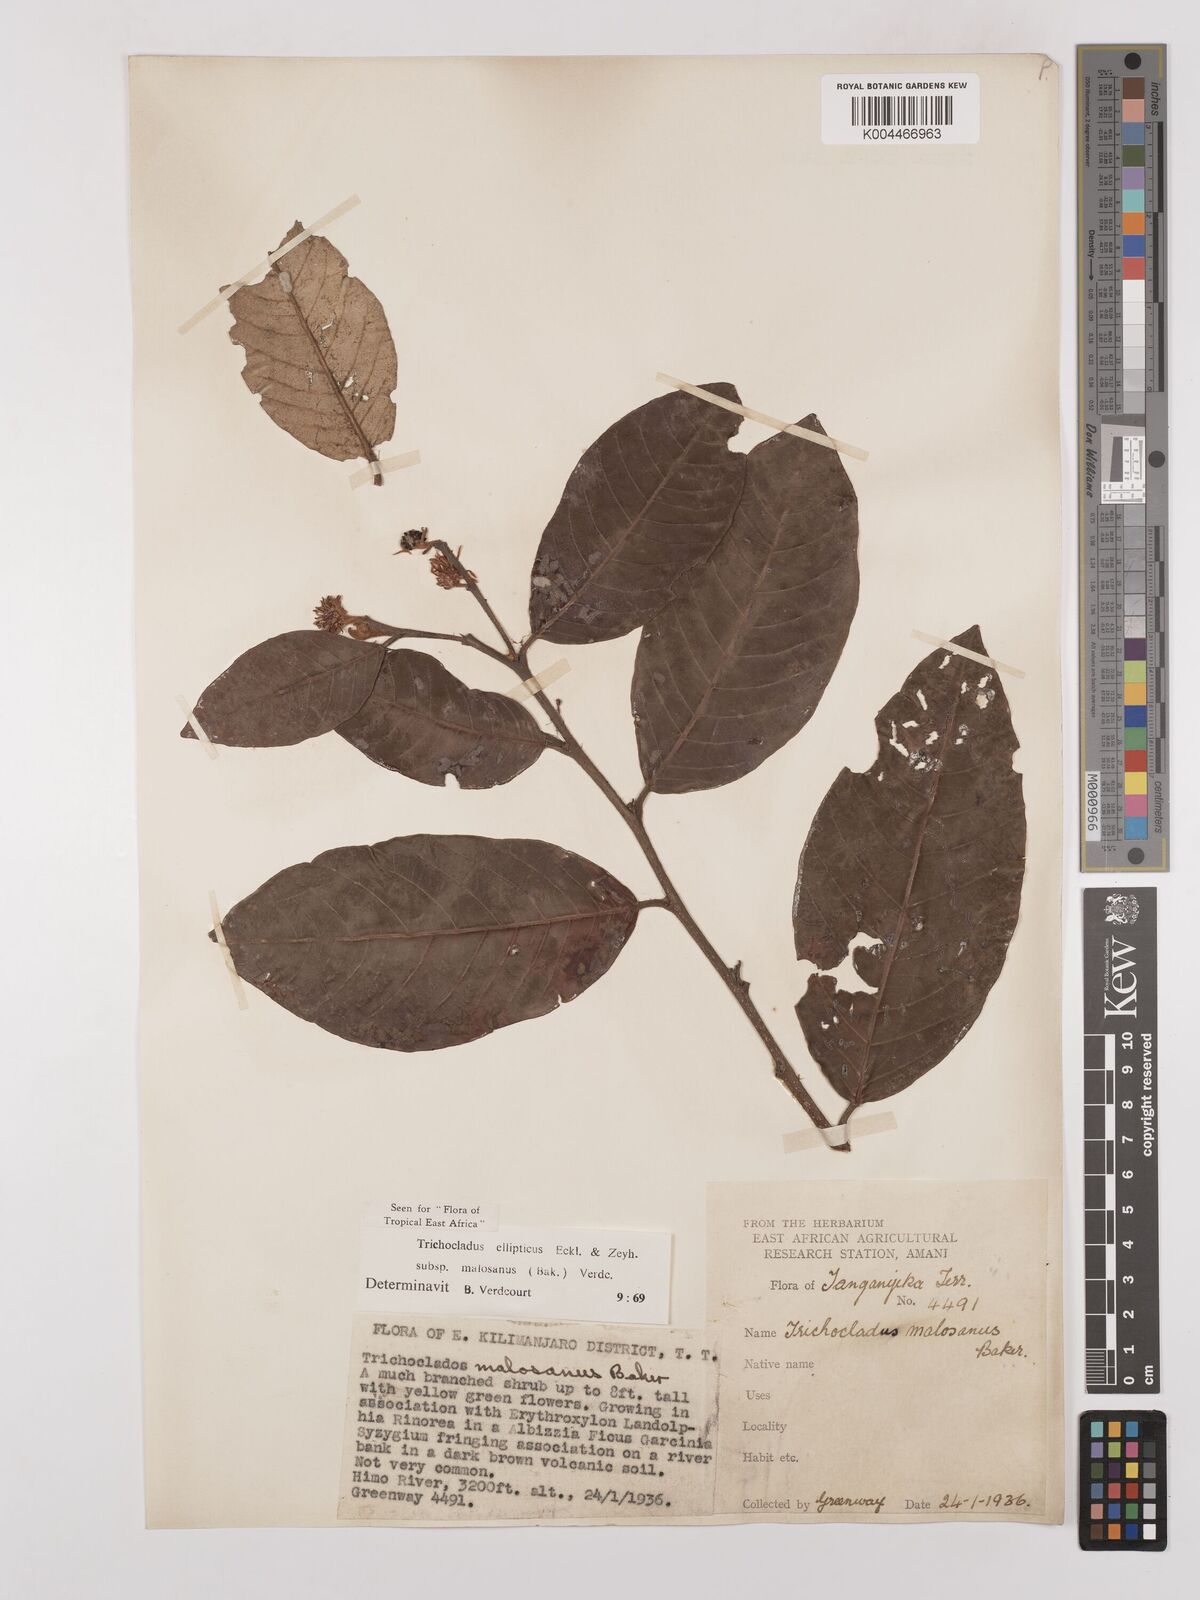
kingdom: Plantae
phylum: Tracheophyta
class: Magnoliopsida
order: Saxifragales
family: Hamamelidaceae
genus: Trichocladus
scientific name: Trichocladus ellipticus
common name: White witch-hazel
